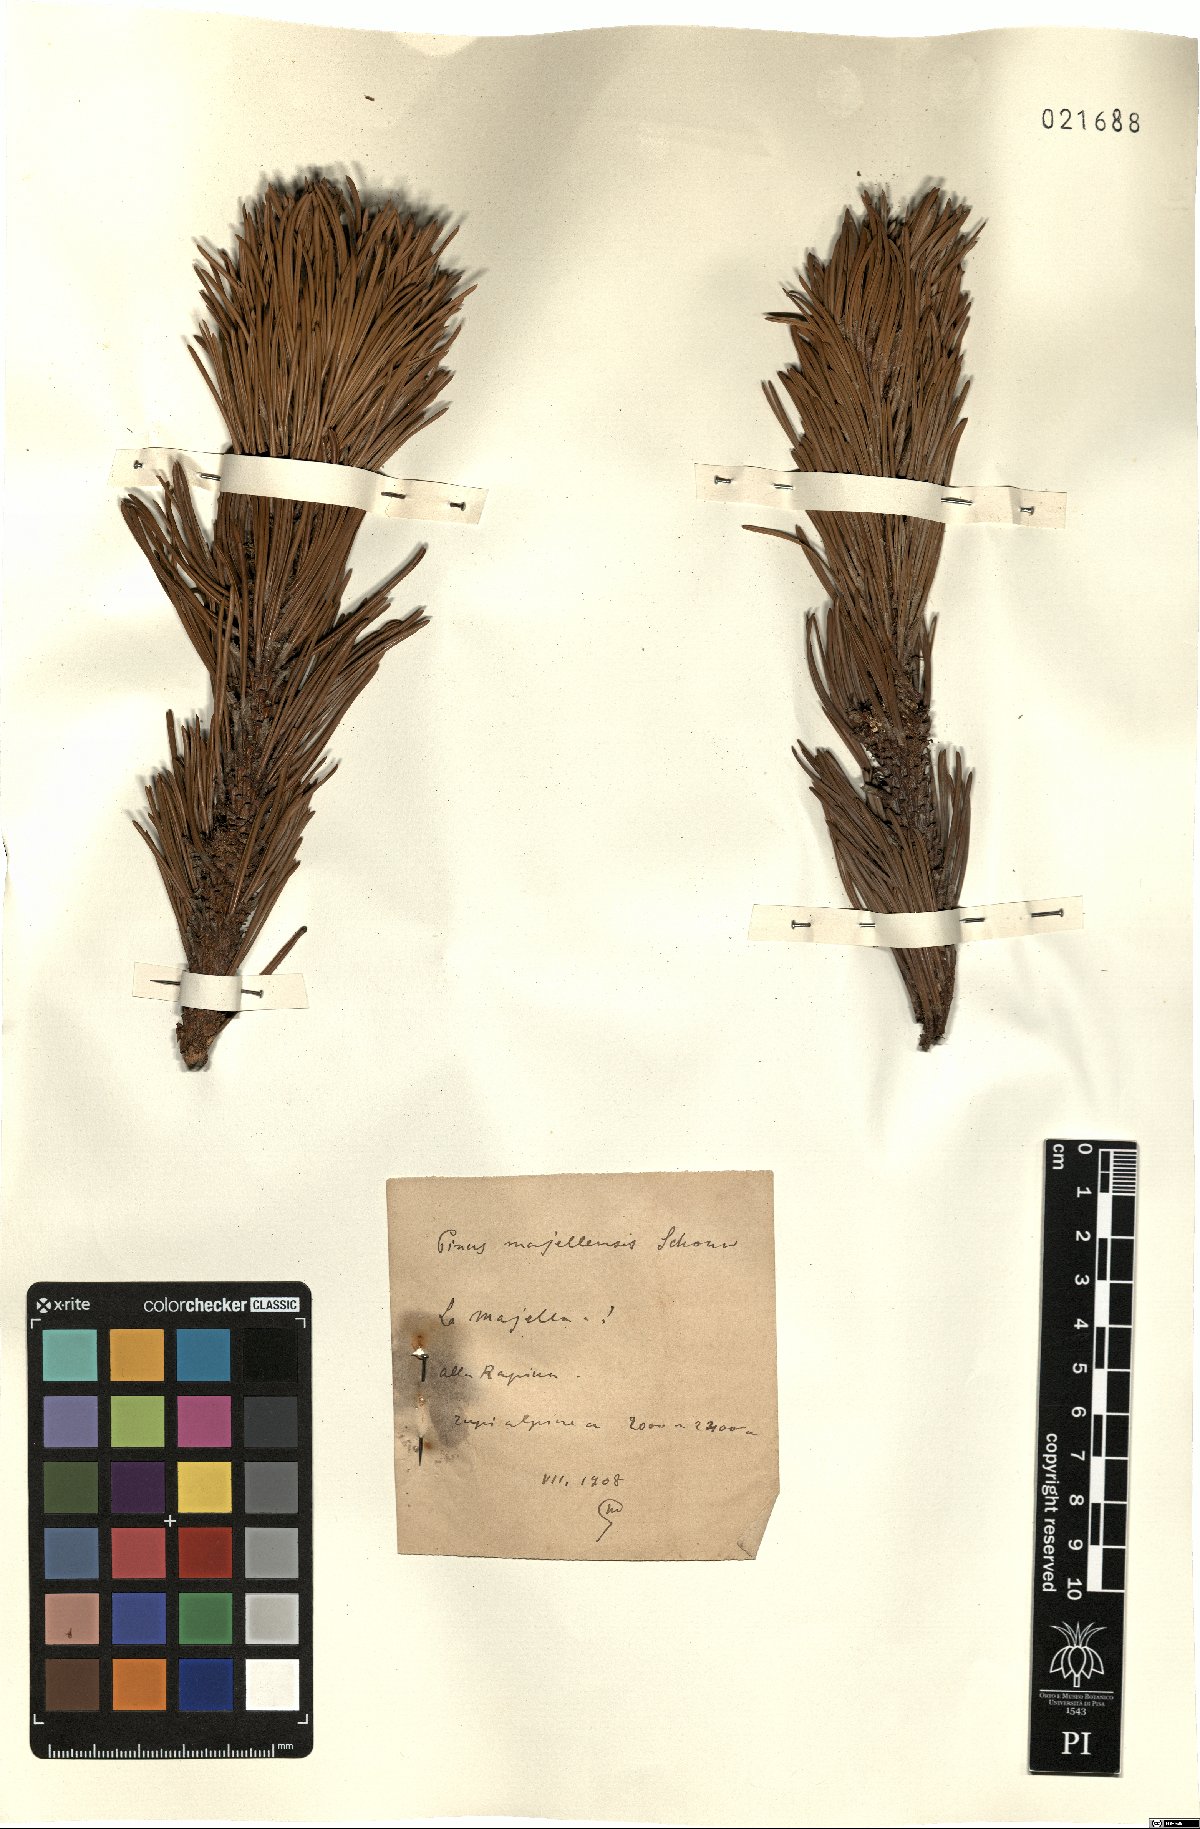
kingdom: Plantae
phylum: Tracheophyta
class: Pinopsida
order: Pinales
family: Pinaceae
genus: Pinus
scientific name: Pinus mugo
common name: Mugo pine
